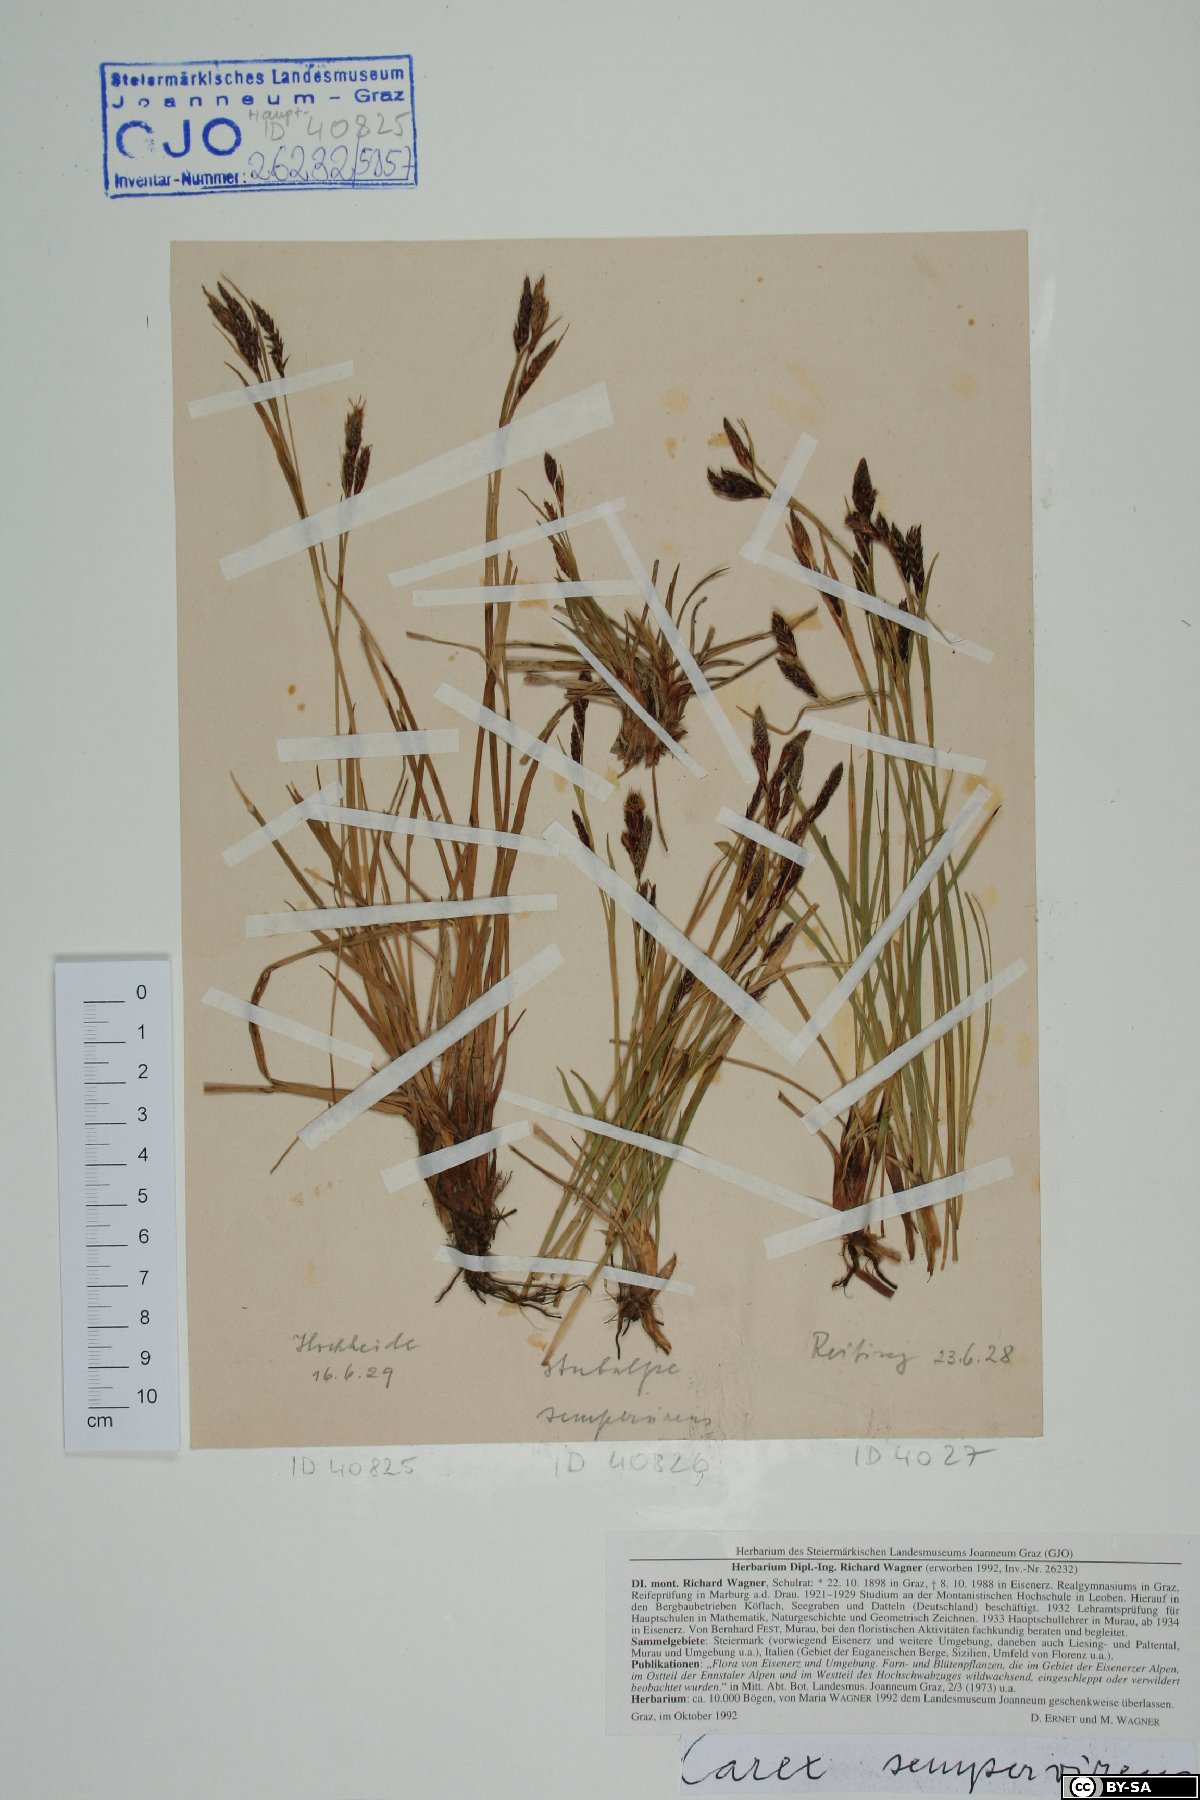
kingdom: Plantae
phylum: Tracheophyta
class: Liliopsida
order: Poales
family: Cyperaceae
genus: Carex
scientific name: Carex sempervirens
